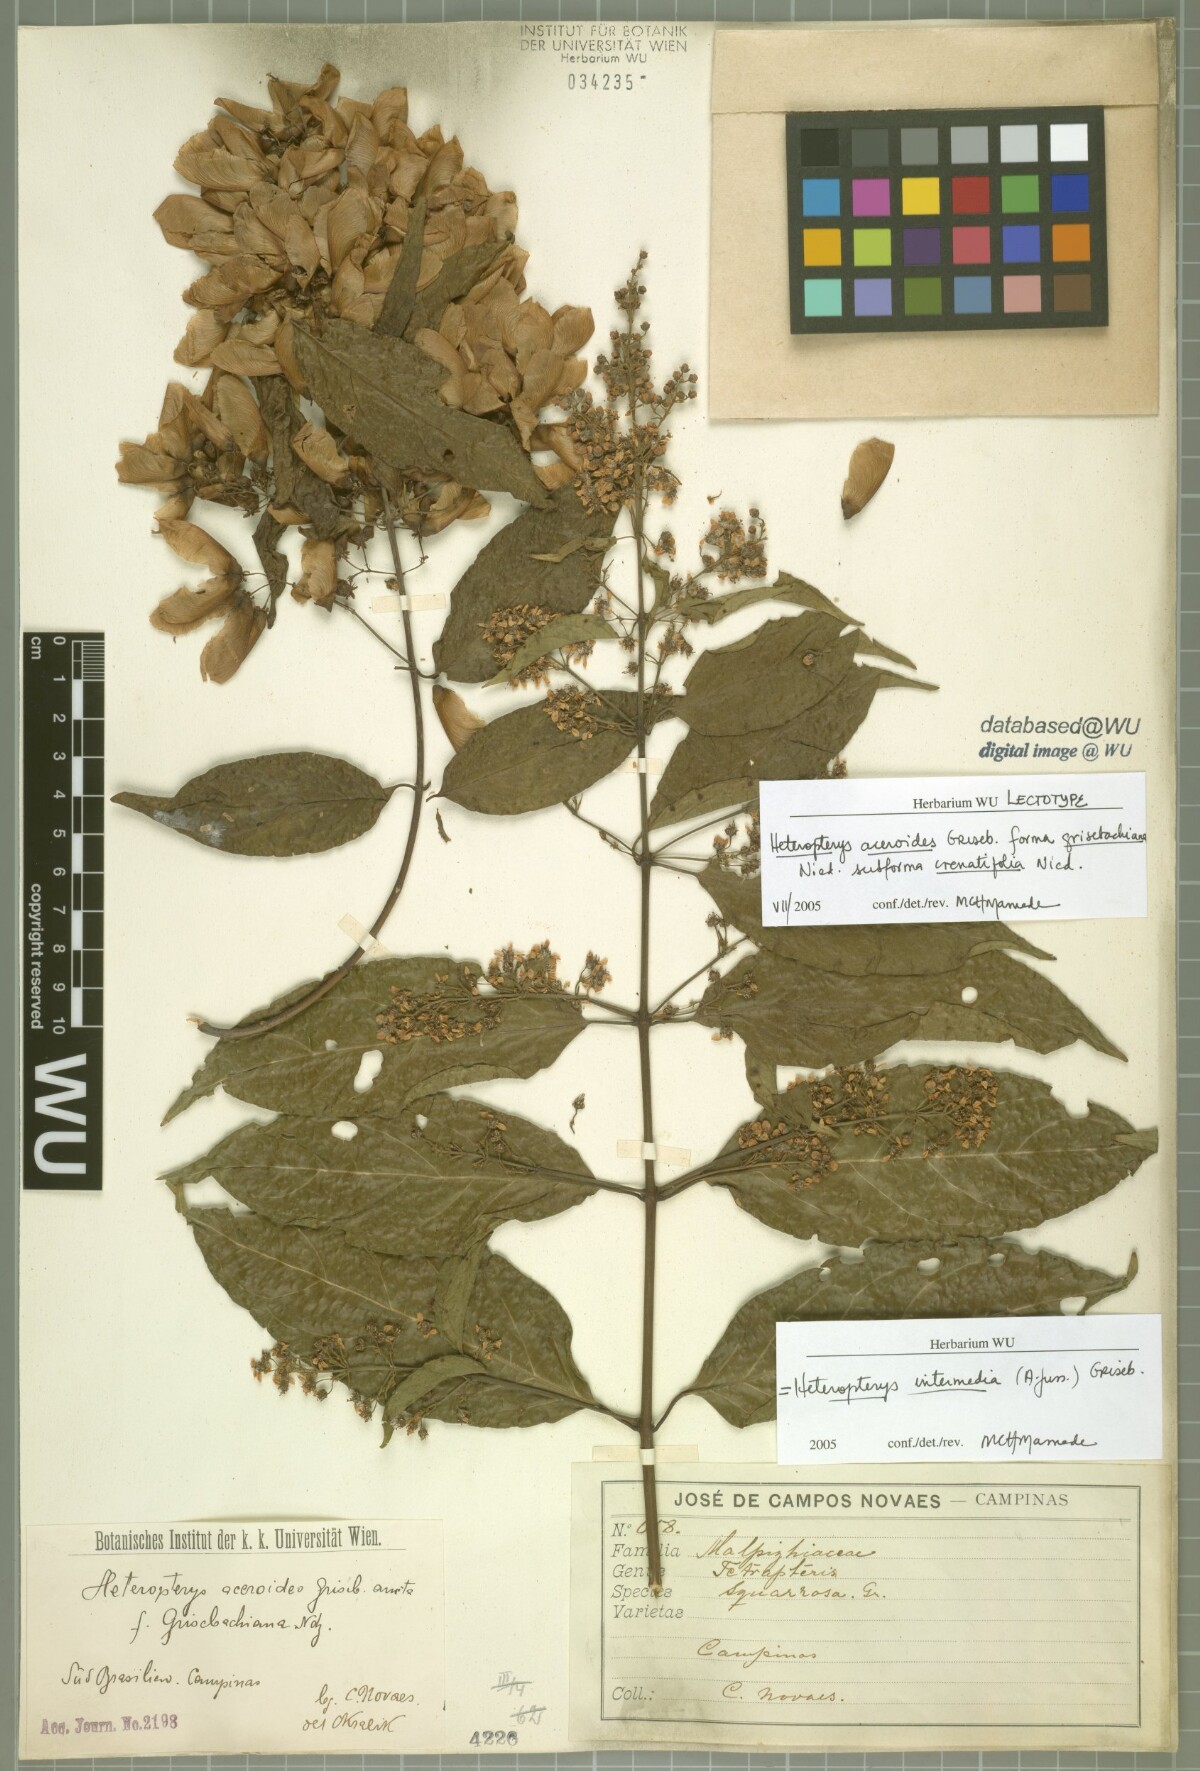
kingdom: Plantae
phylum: Tracheophyta
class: Magnoliopsida
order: Malpighiales
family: Malpighiaceae
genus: Heteropterys
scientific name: Heteropterys intermedia
